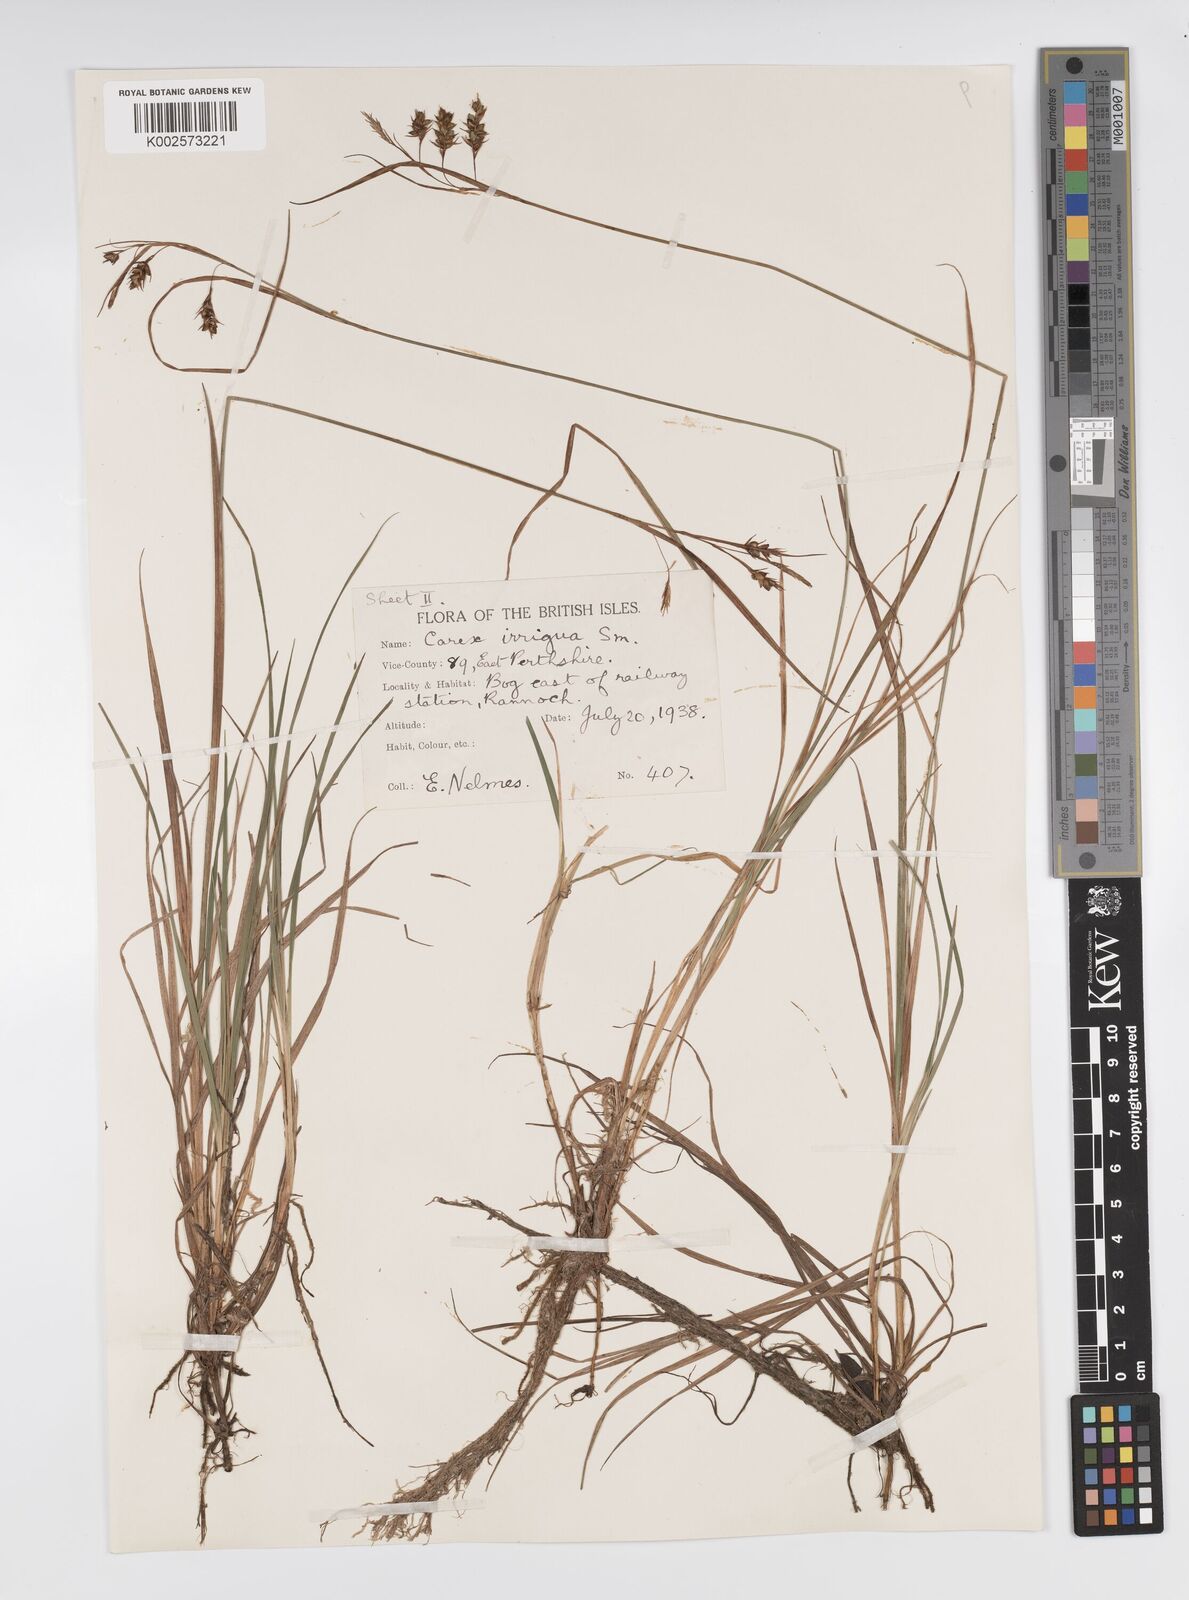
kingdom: Plantae
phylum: Tracheophyta
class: Liliopsida
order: Poales
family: Cyperaceae
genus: Carex
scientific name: Carex magellanica
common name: Bog sedge
